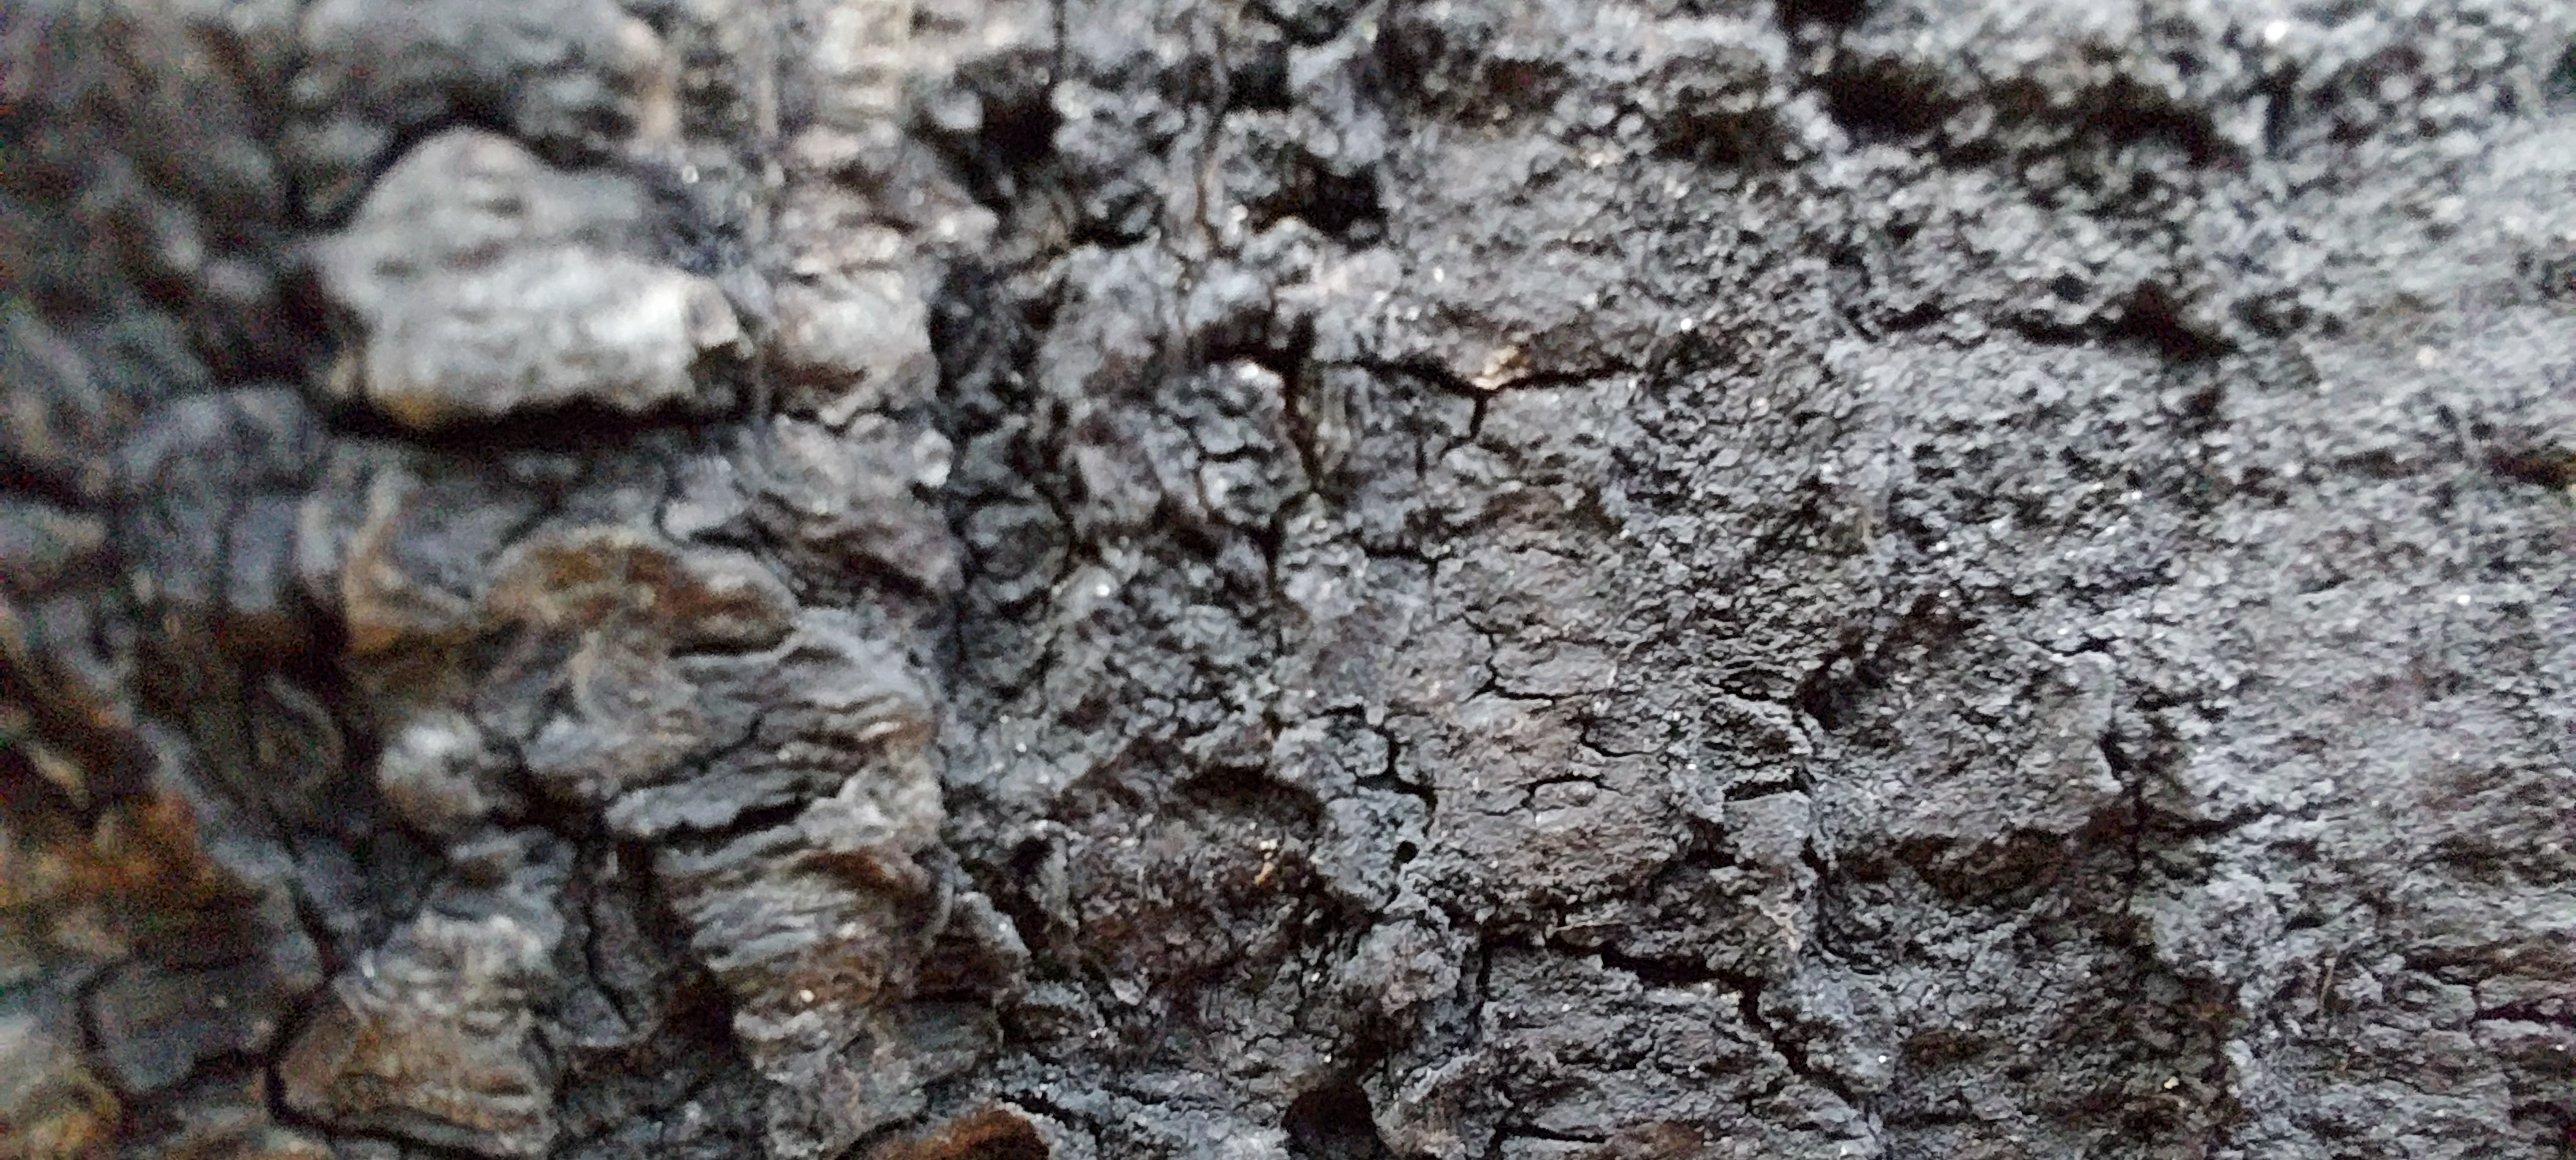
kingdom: Fungi
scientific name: Fungi
